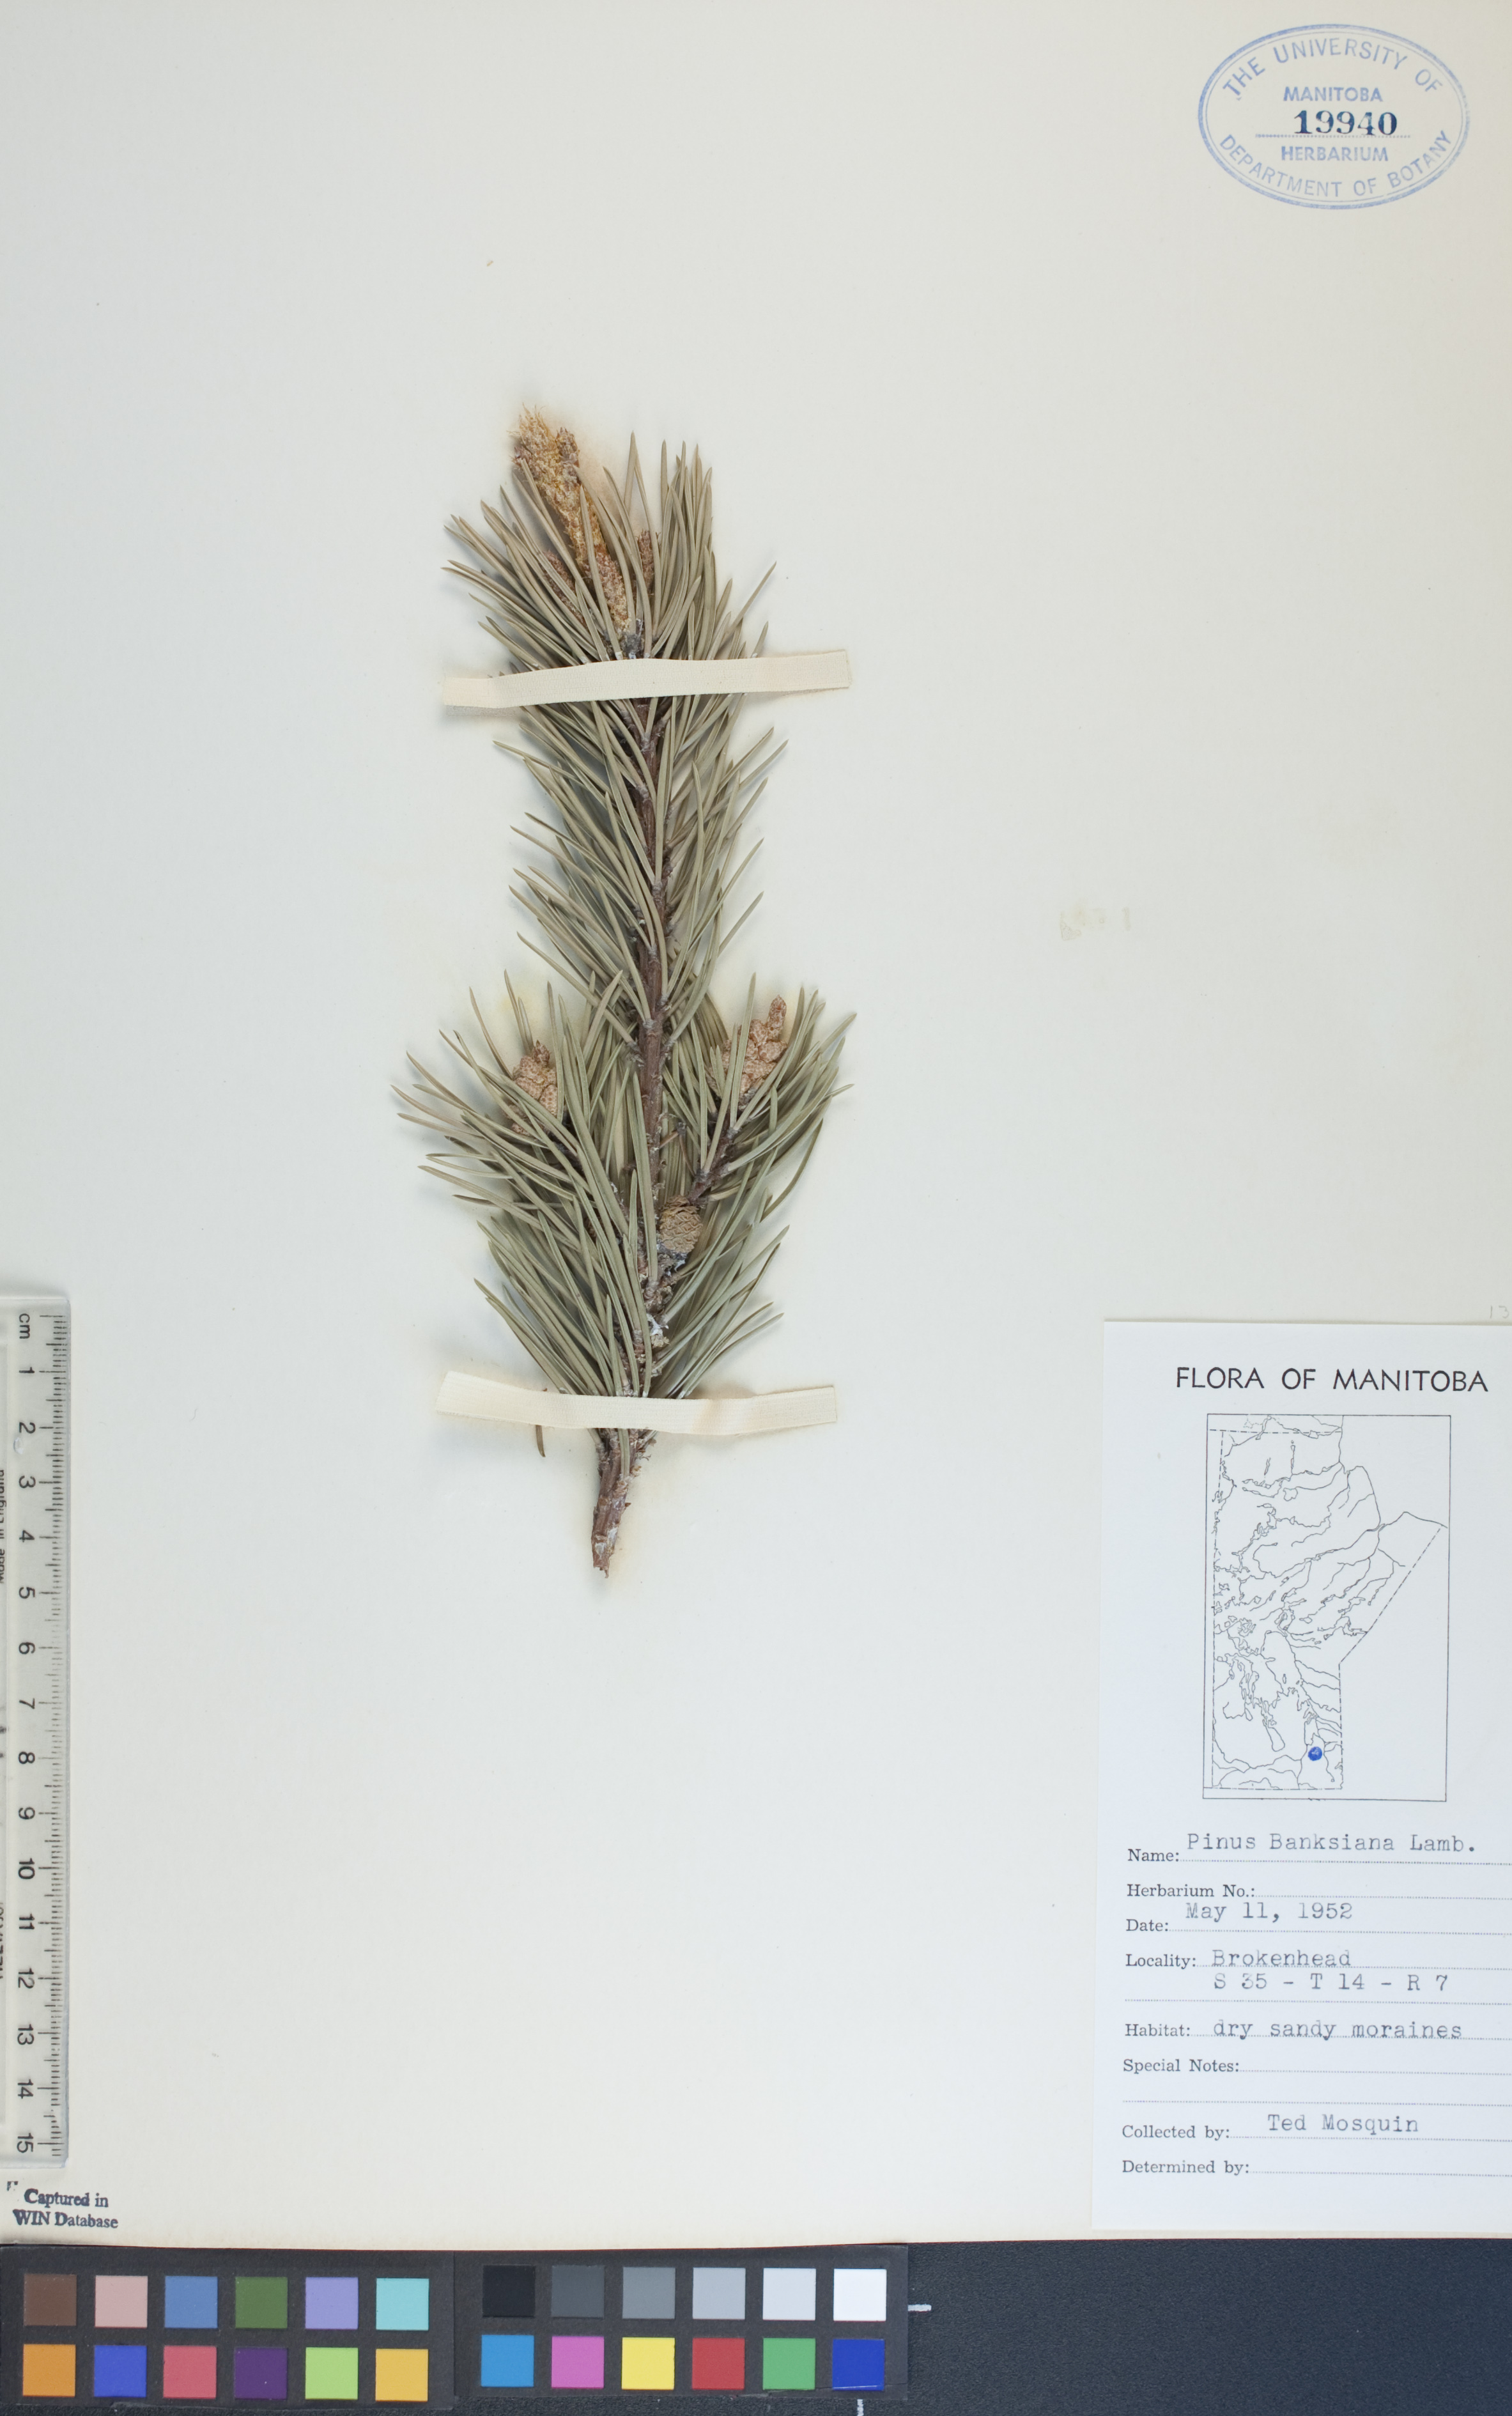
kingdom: Plantae
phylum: Tracheophyta
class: Pinopsida
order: Pinales
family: Pinaceae
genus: Pinus
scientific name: Pinus banksiana
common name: Jack pine
